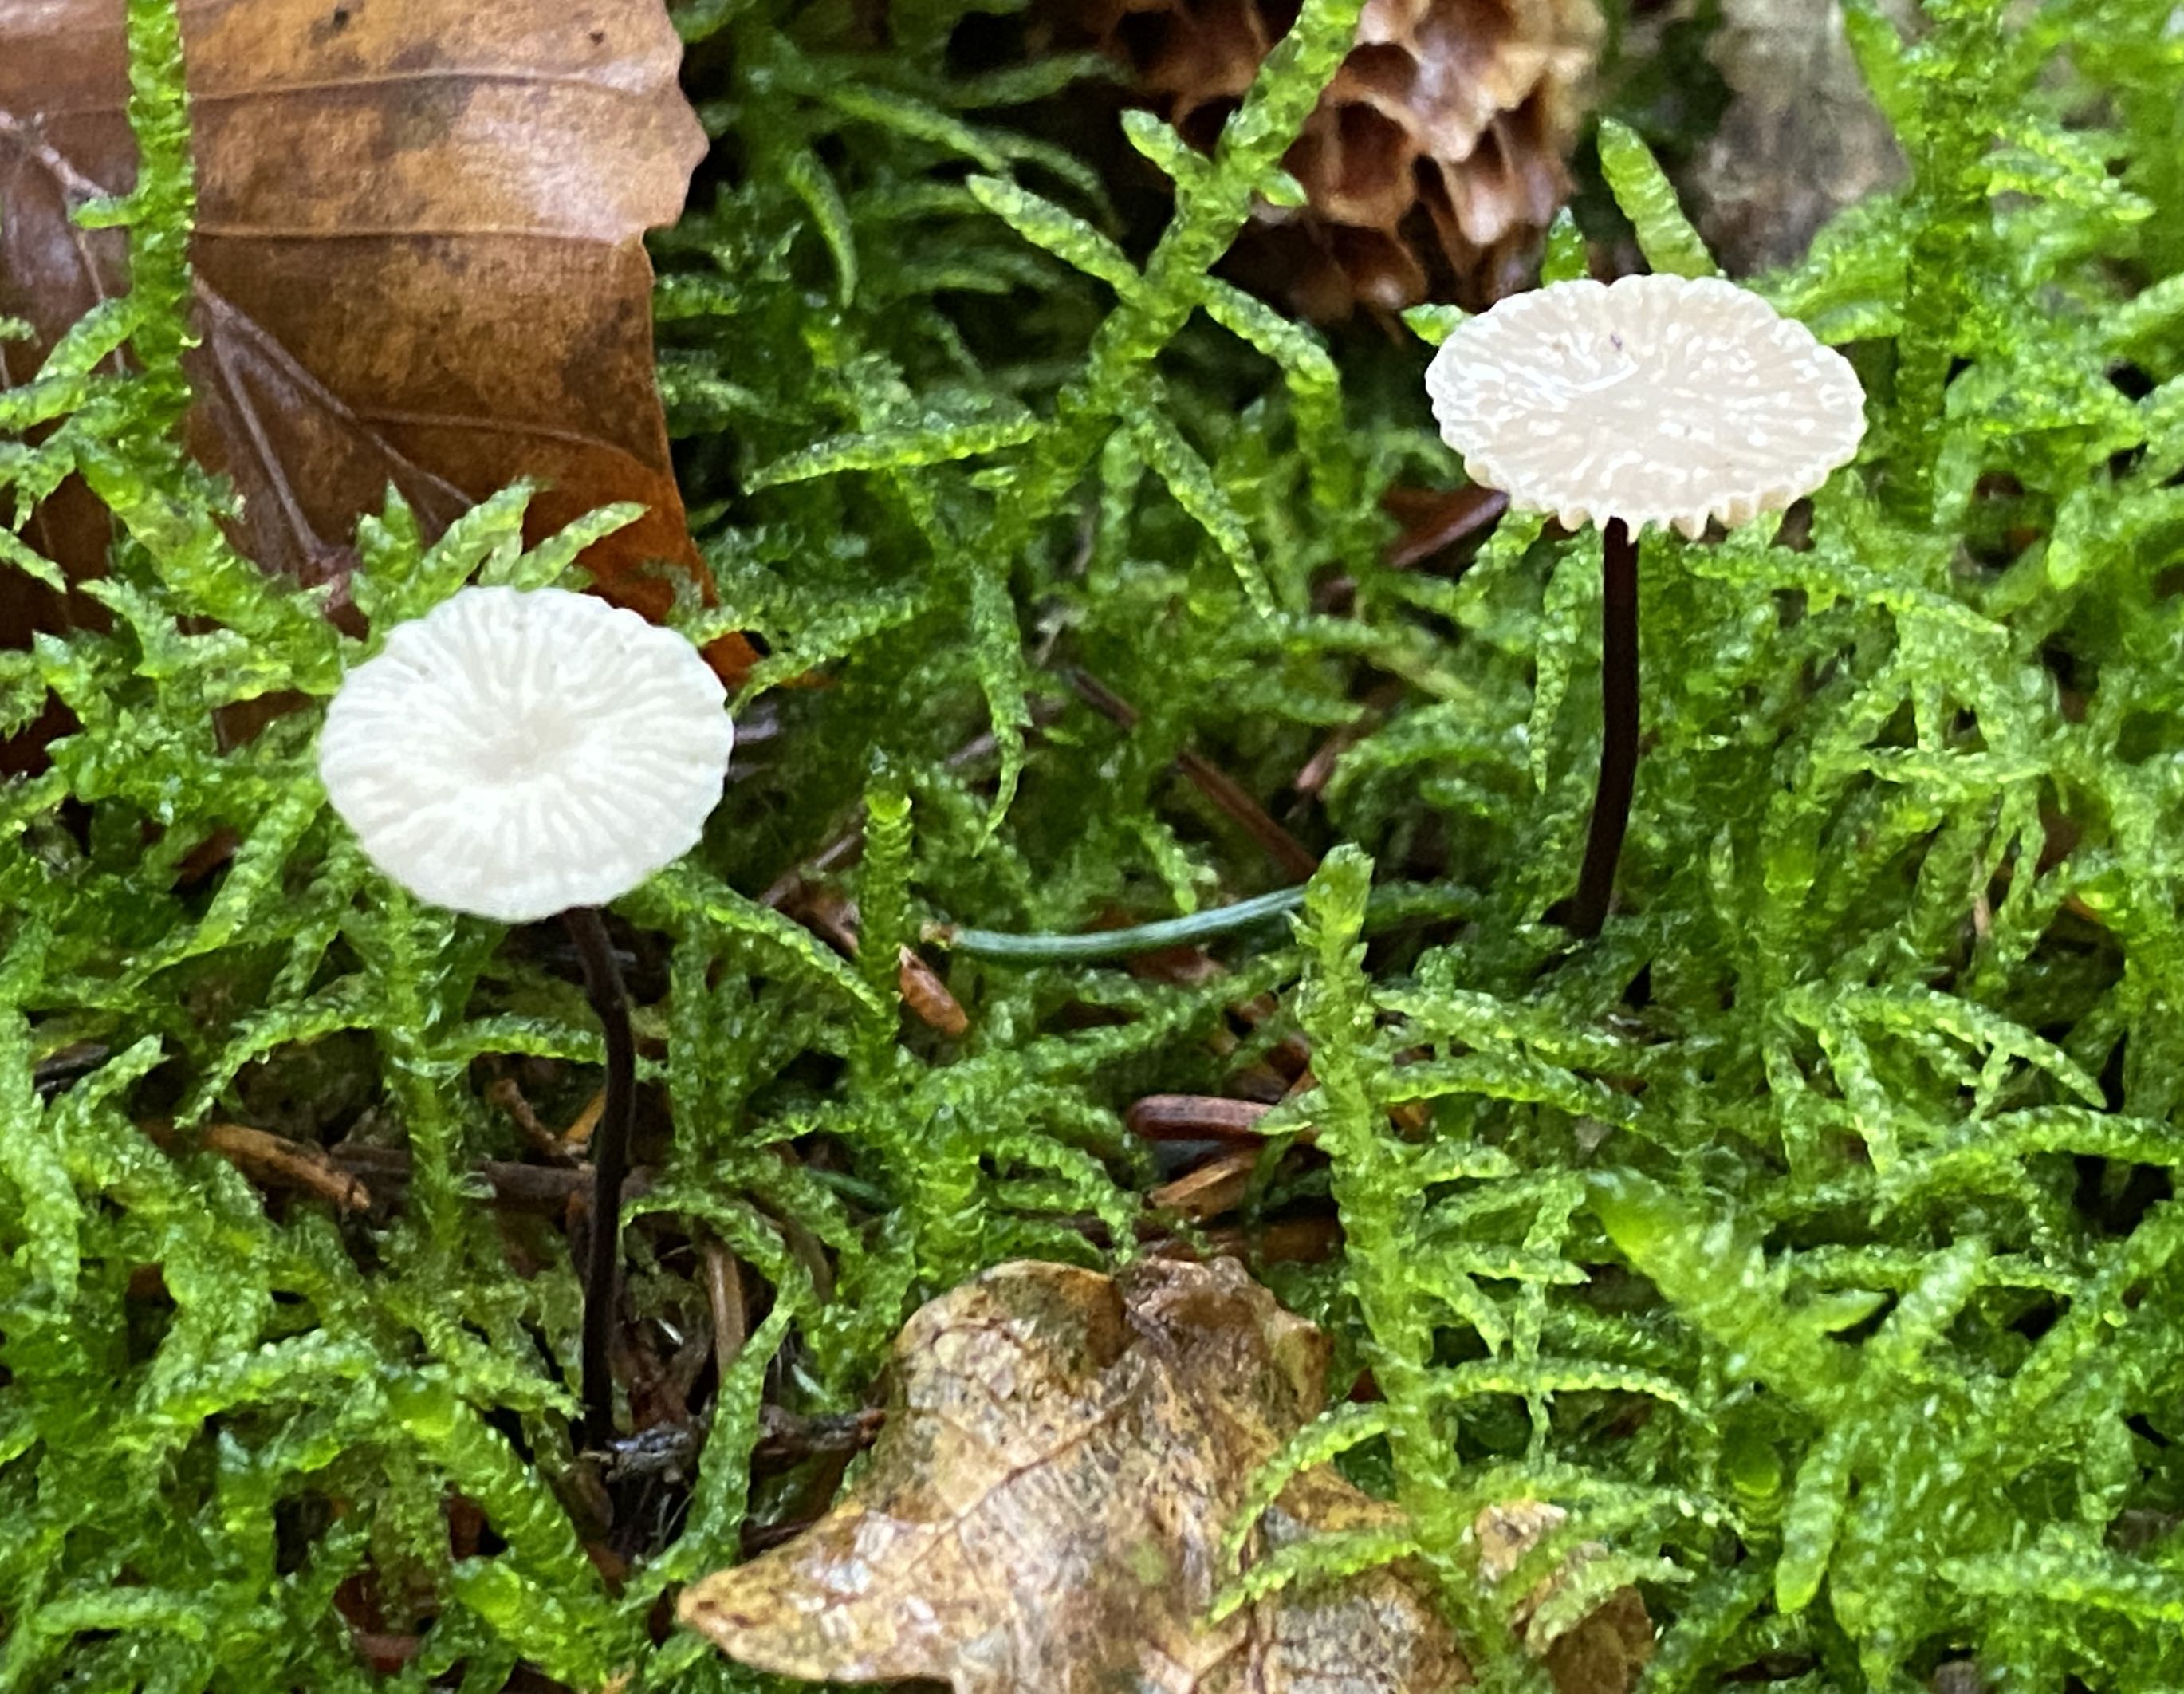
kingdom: Fungi
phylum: Basidiomycota
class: Agaricomycetes
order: Agaricales
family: Omphalotaceae
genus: Paragymnopus
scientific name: Paragymnopus perforans
